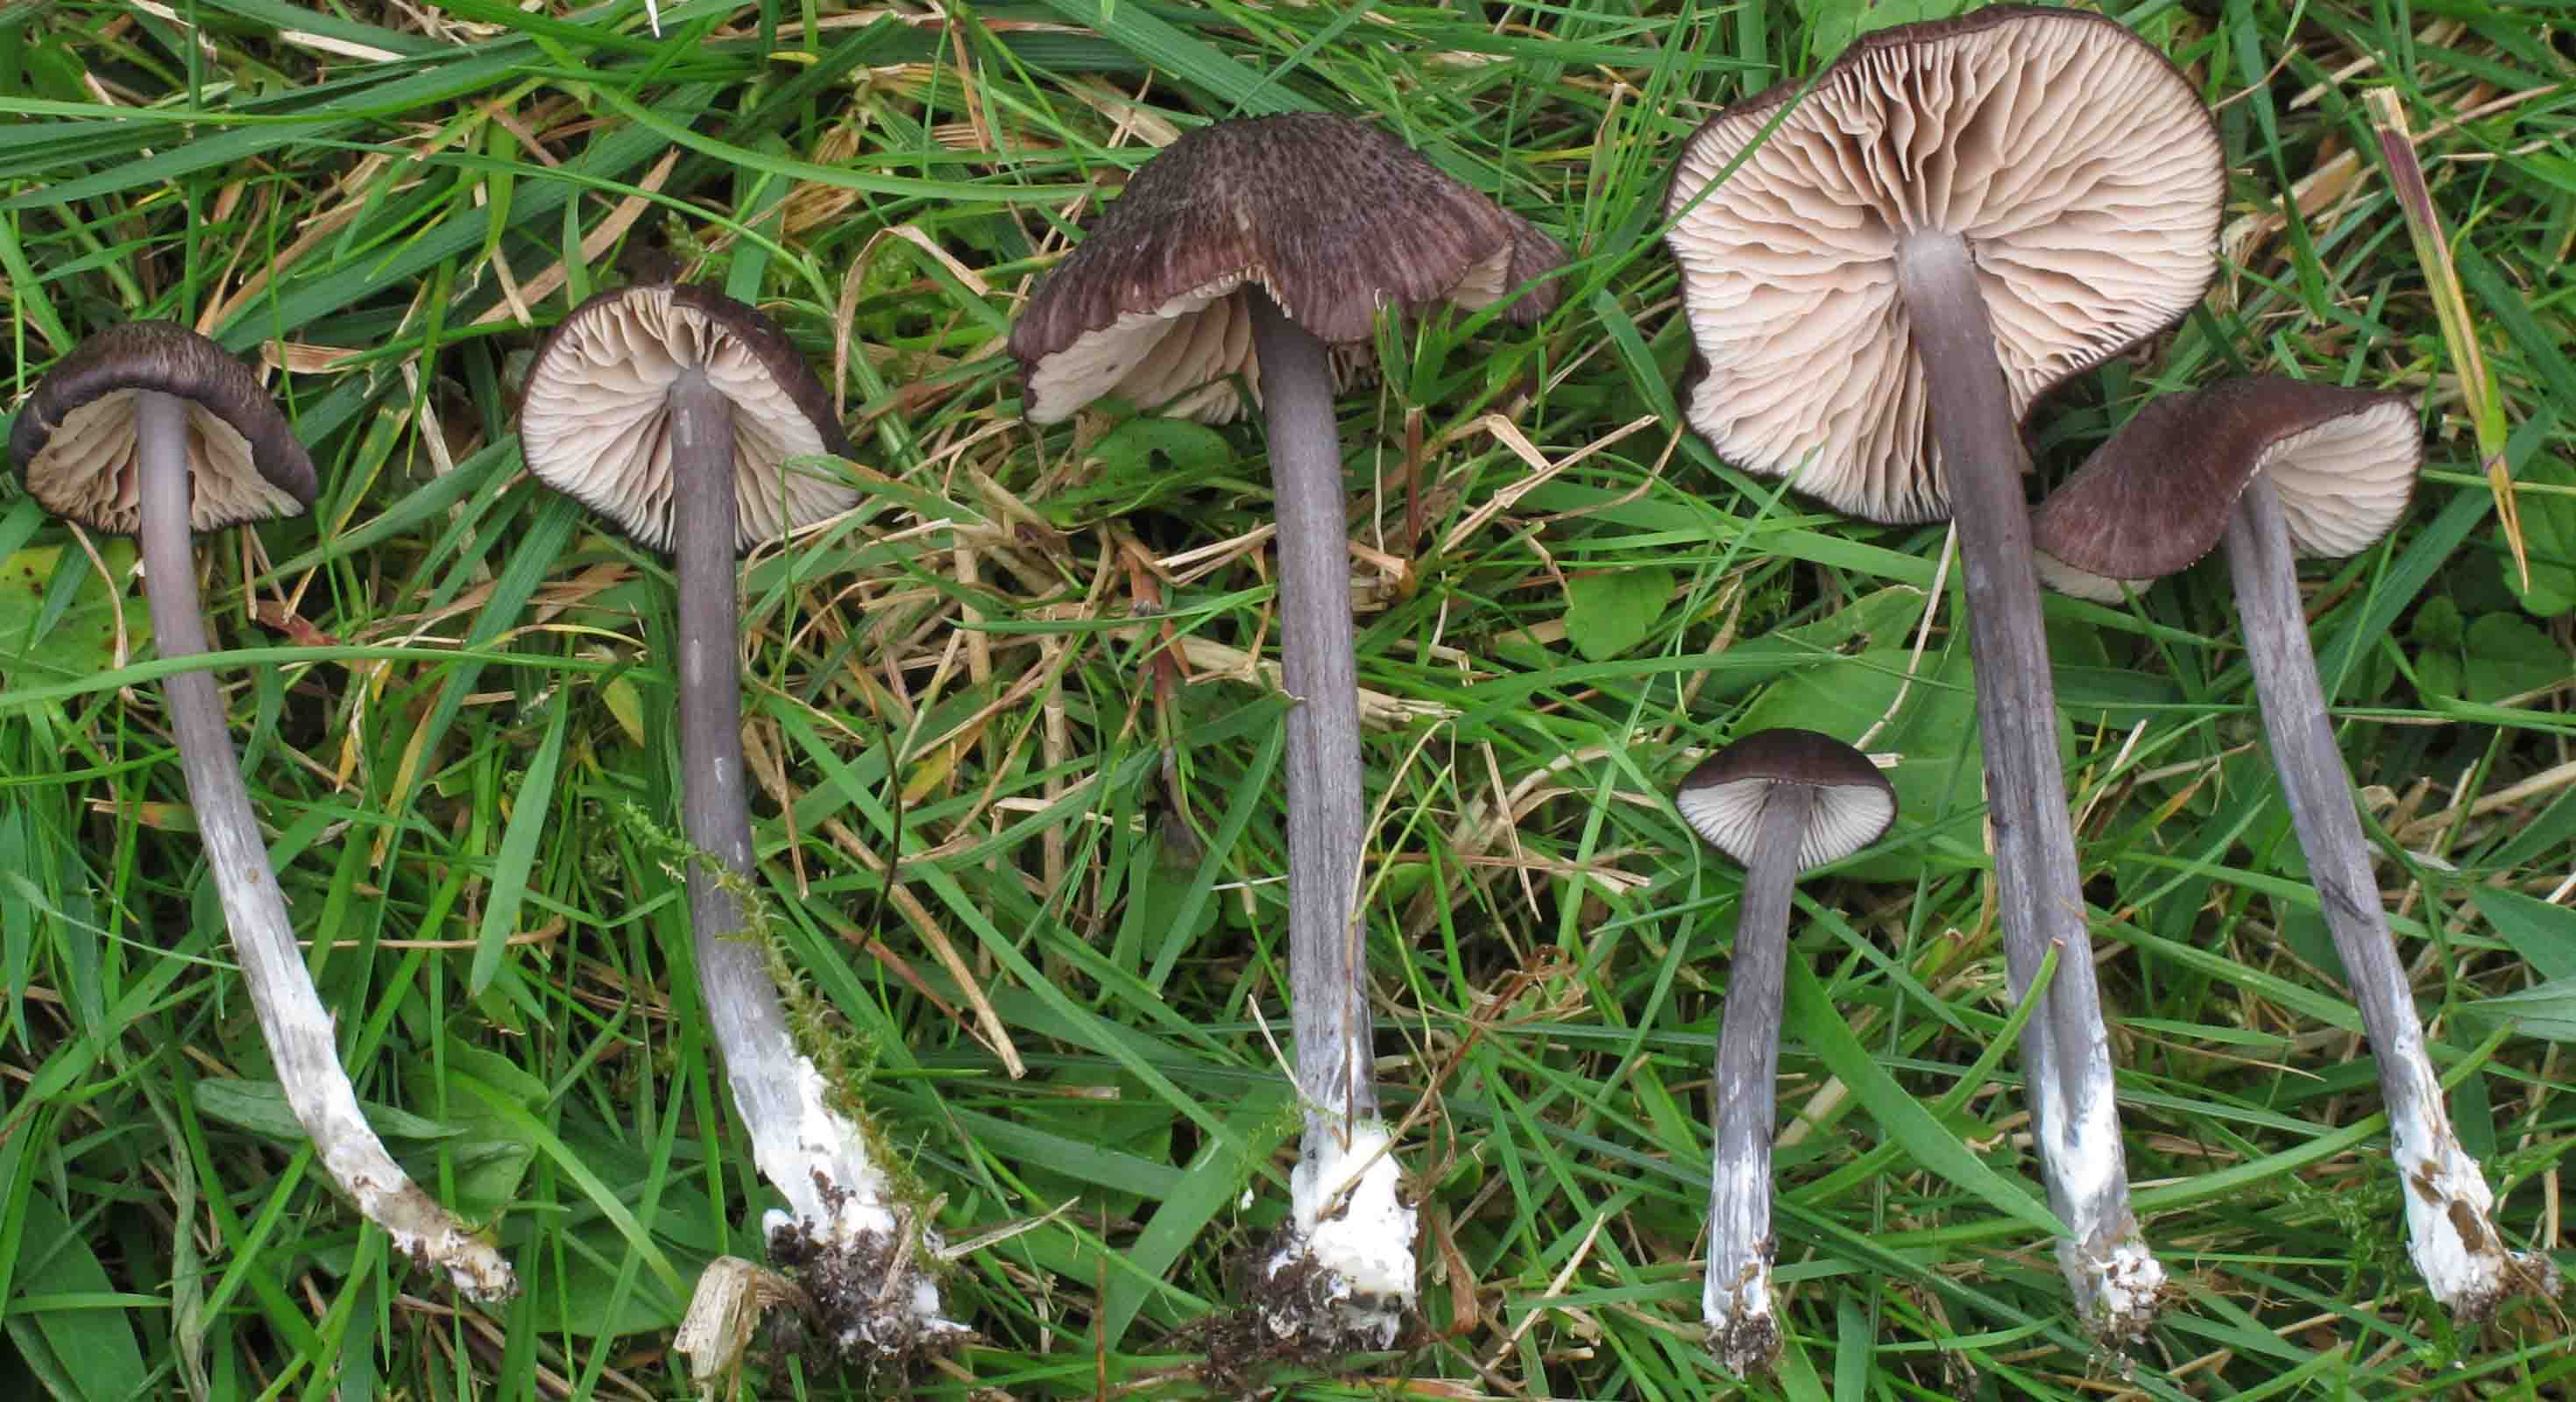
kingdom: Fungi
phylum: Basidiomycota
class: Agaricomycetes
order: Agaricales
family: Entolomataceae
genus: Entoloma
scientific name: Entoloma viiduense
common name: purpurbrun rødblad
